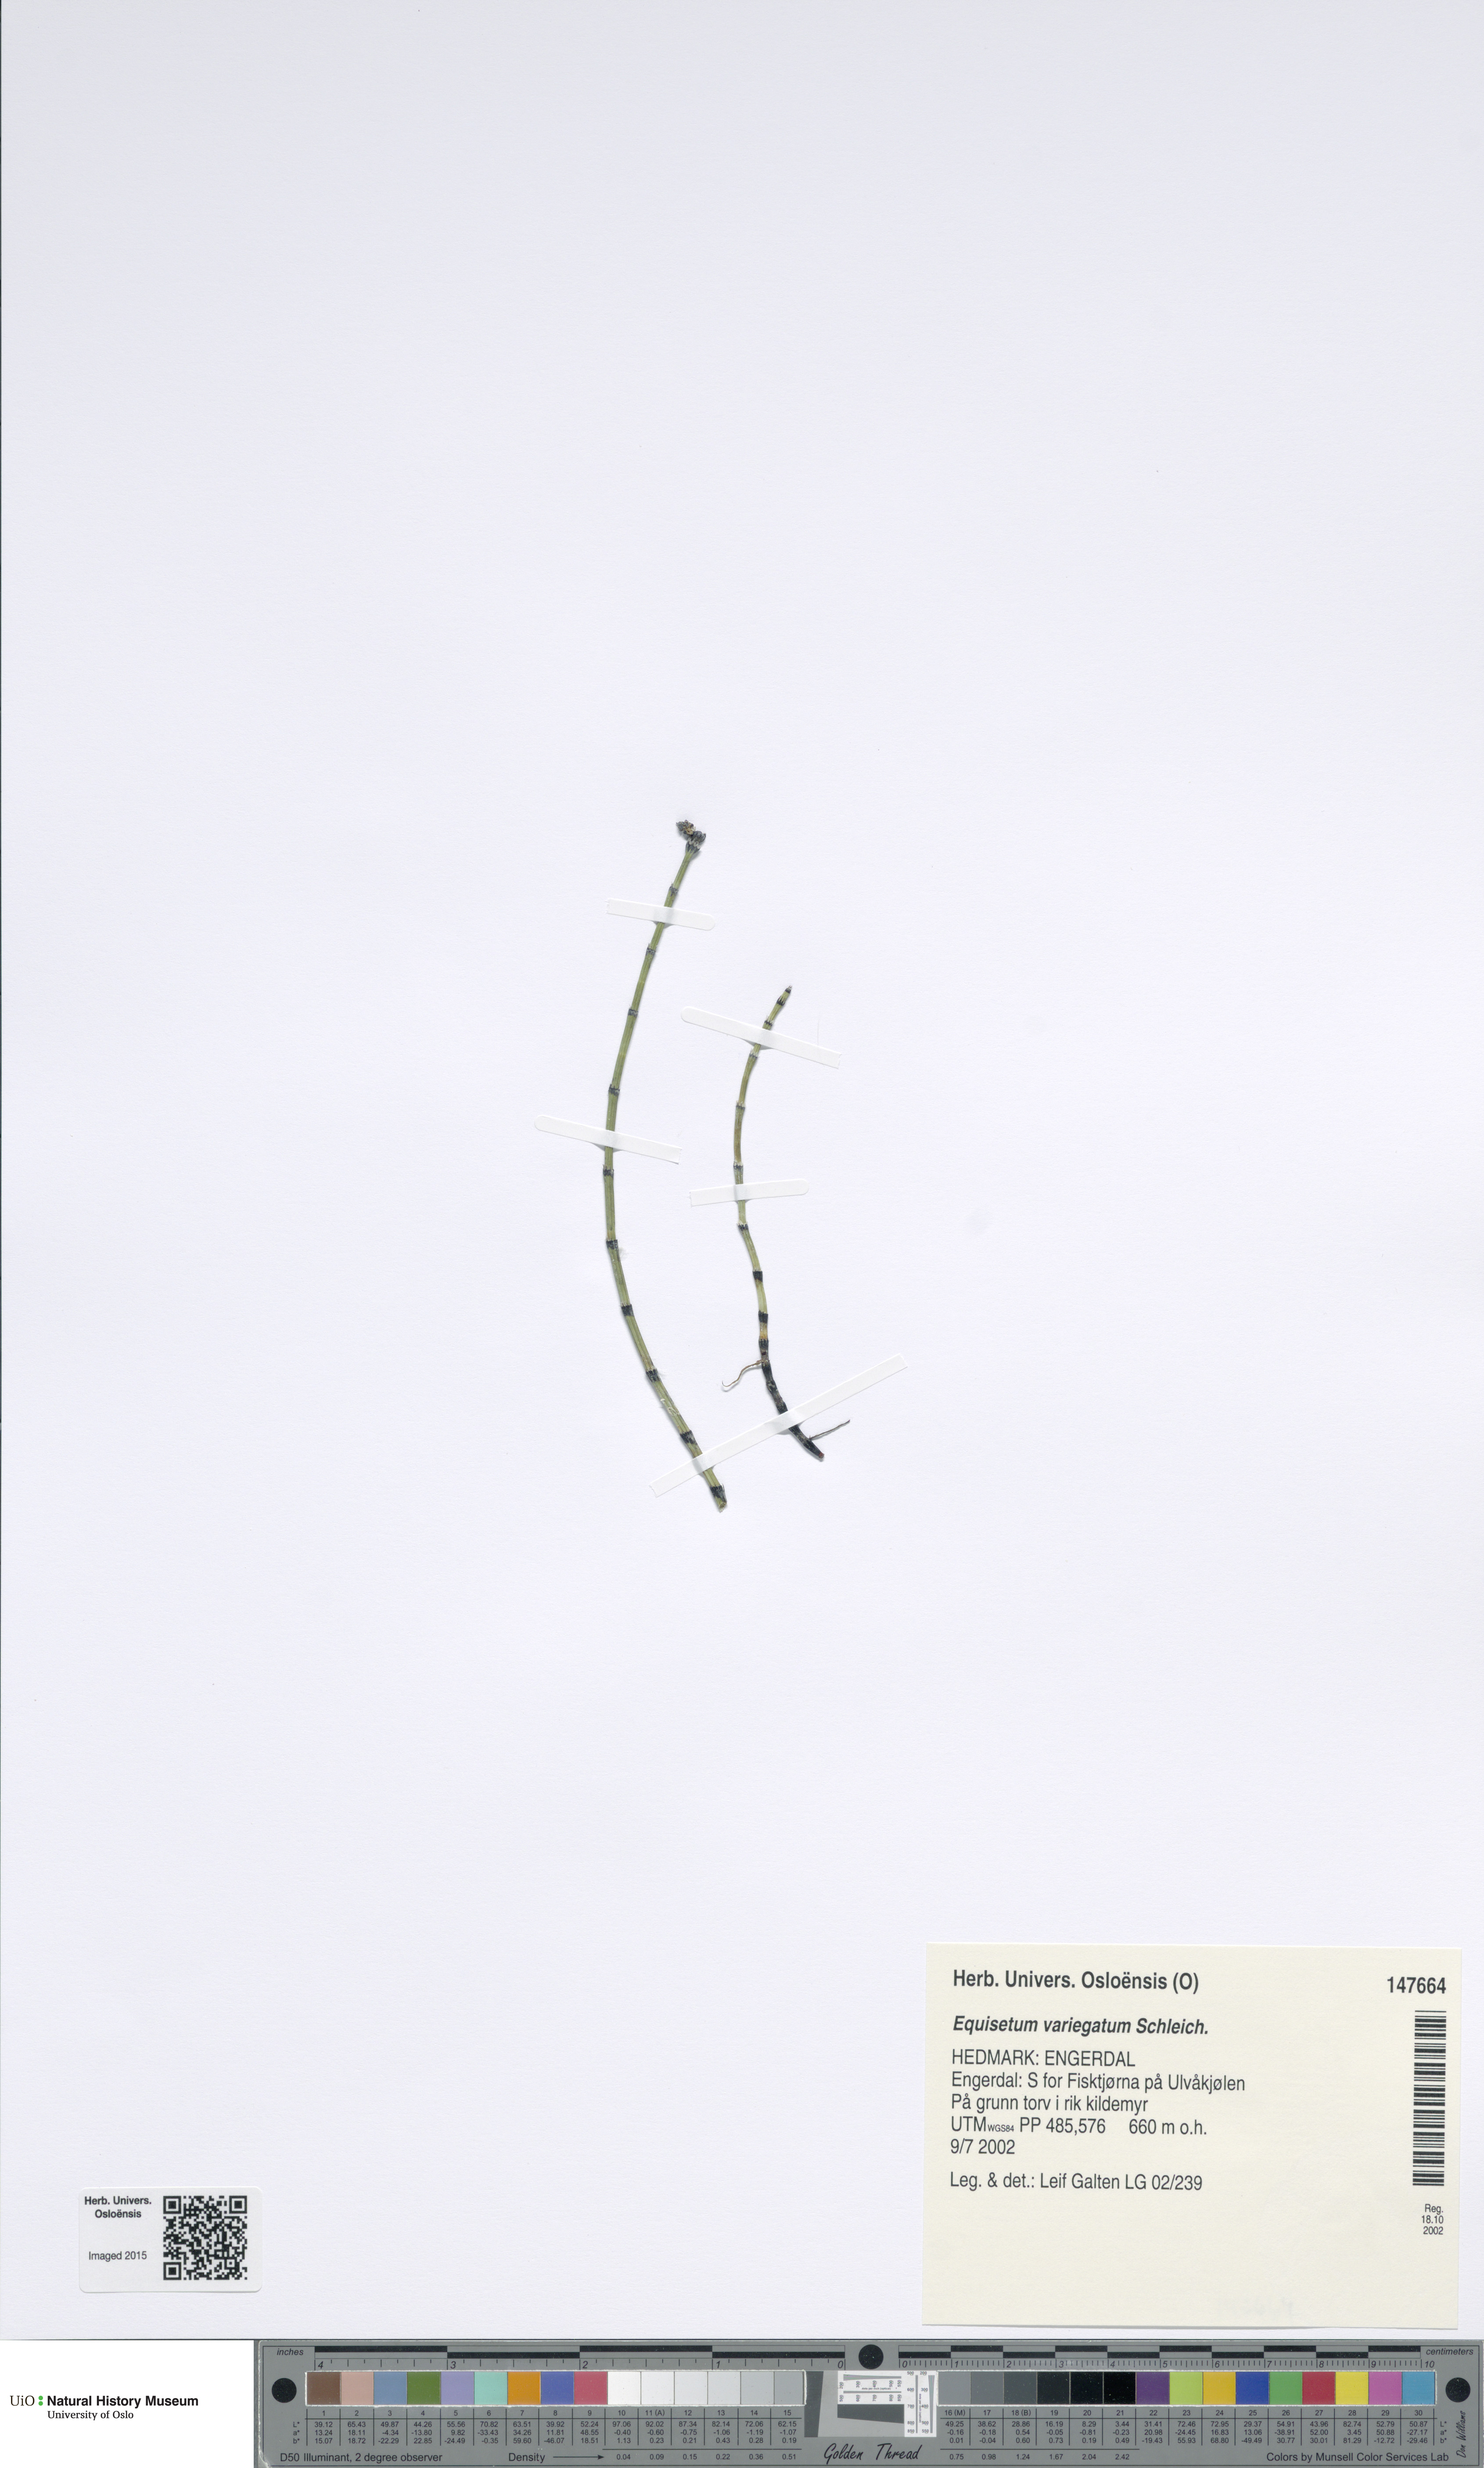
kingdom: Plantae
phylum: Tracheophyta
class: Polypodiopsida
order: Equisetales
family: Equisetaceae
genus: Equisetum
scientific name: Equisetum variegatum
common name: Variegated horsetail
